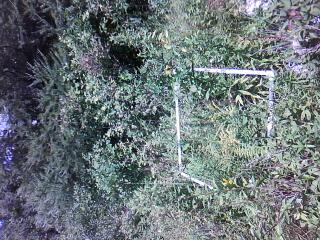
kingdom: Plantae
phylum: Tracheophyta
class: Magnoliopsida
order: Rosales
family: Rosaceae
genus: Dasiphora
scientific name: Dasiphora fruticosa
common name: Shrubby cinquefoil
